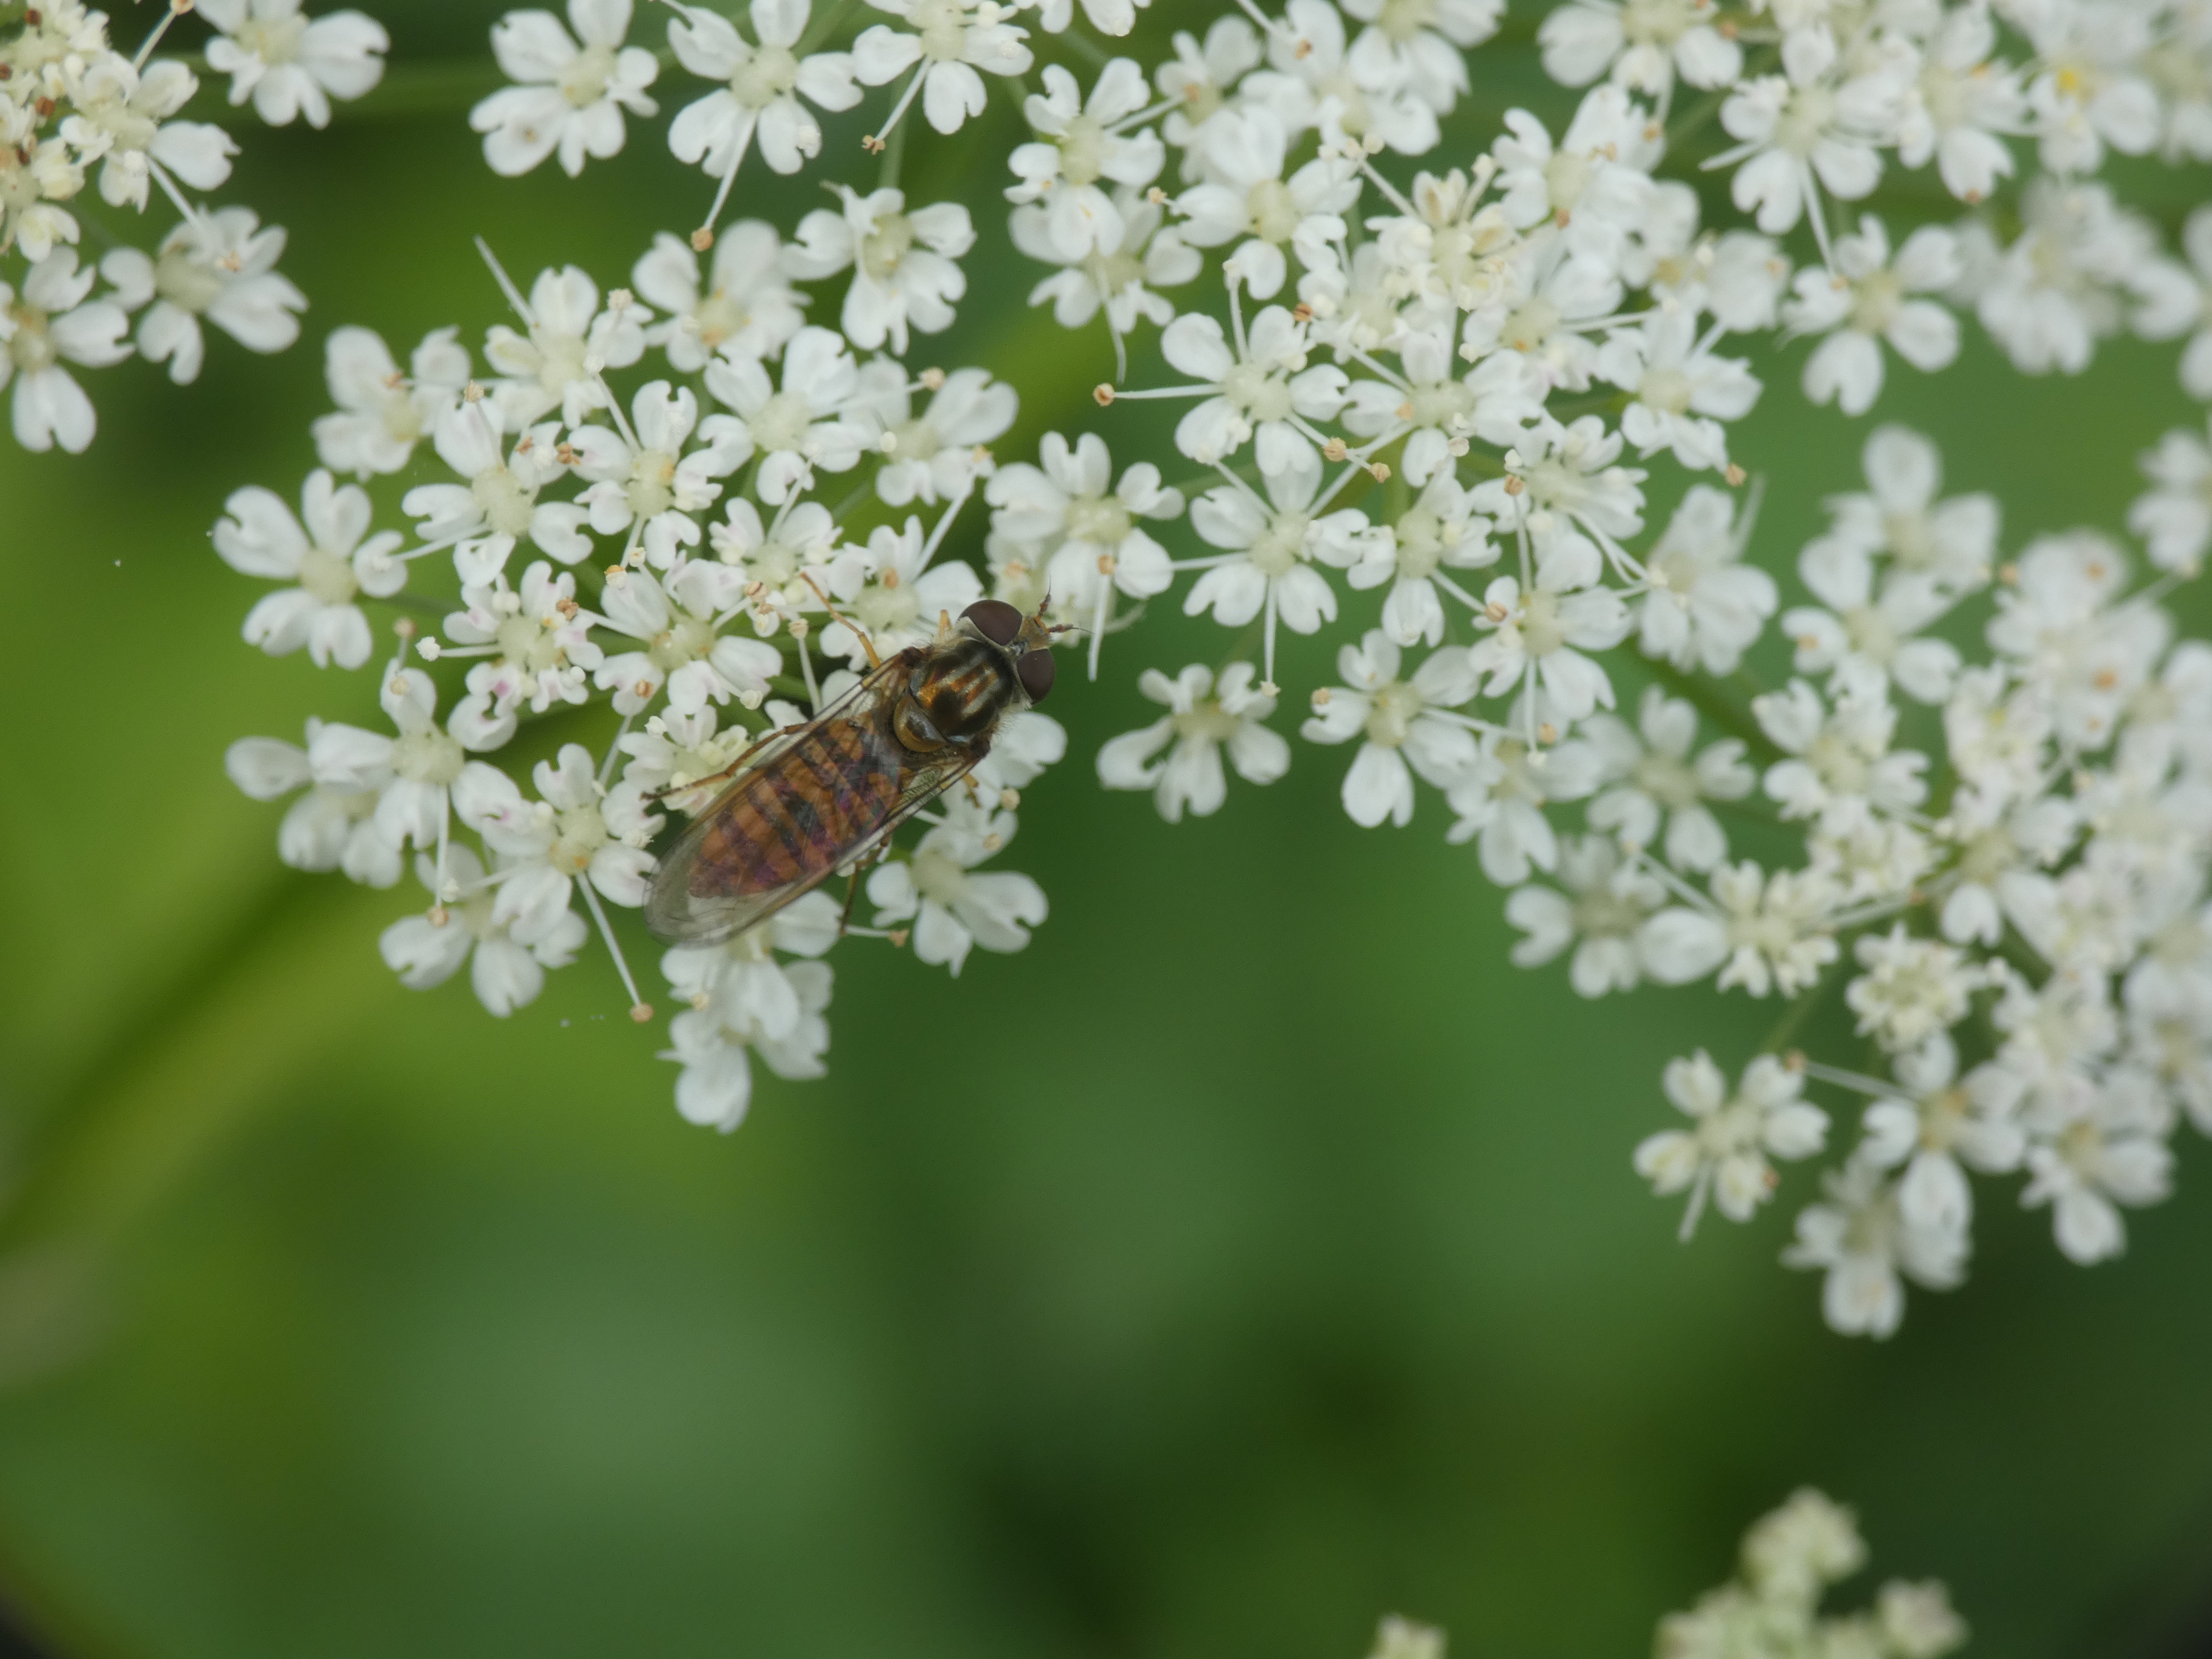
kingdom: Animalia
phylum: Arthropoda
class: Insecta
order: Diptera
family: Syrphidae
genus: Episyrphus
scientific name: Episyrphus balteatus
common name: Dobbeltbåndet svirreflue
